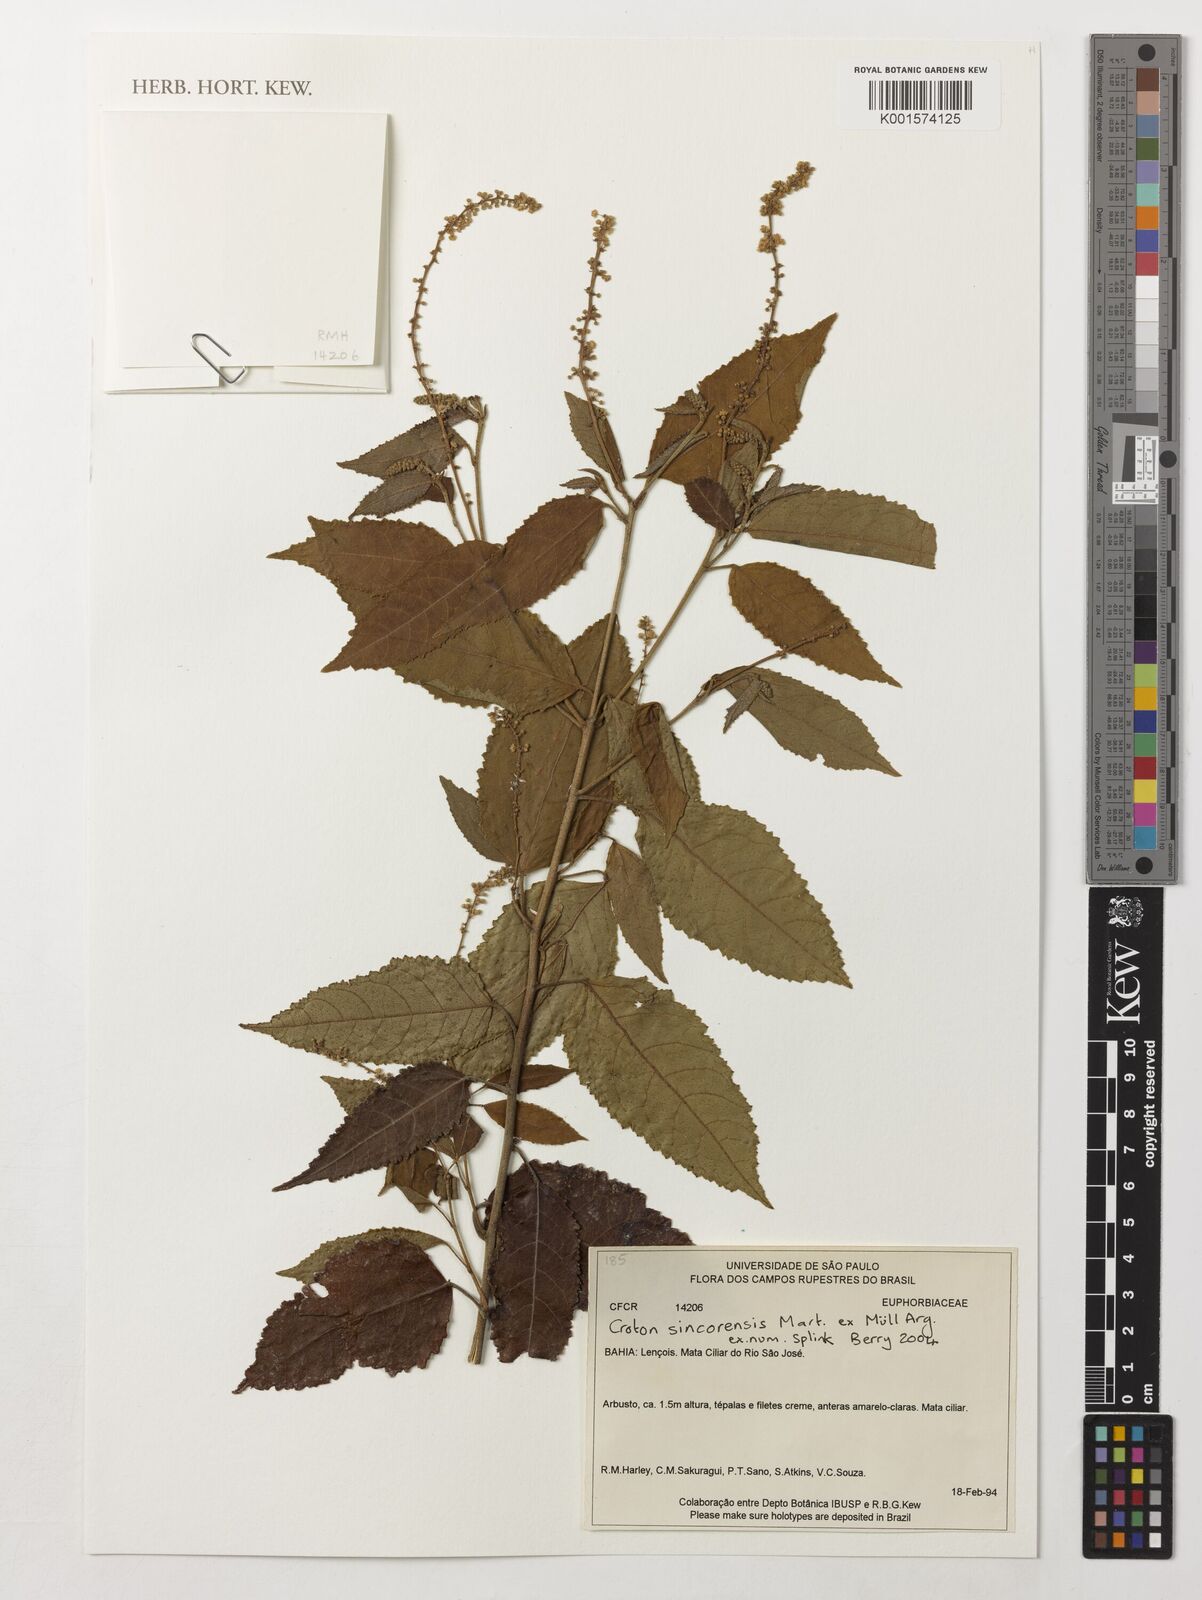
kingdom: Plantae
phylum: Tracheophyta
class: Magnoliopsida
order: Malpighiales
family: Euphorbiaceae
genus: Croton
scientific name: Croton sincorensis
